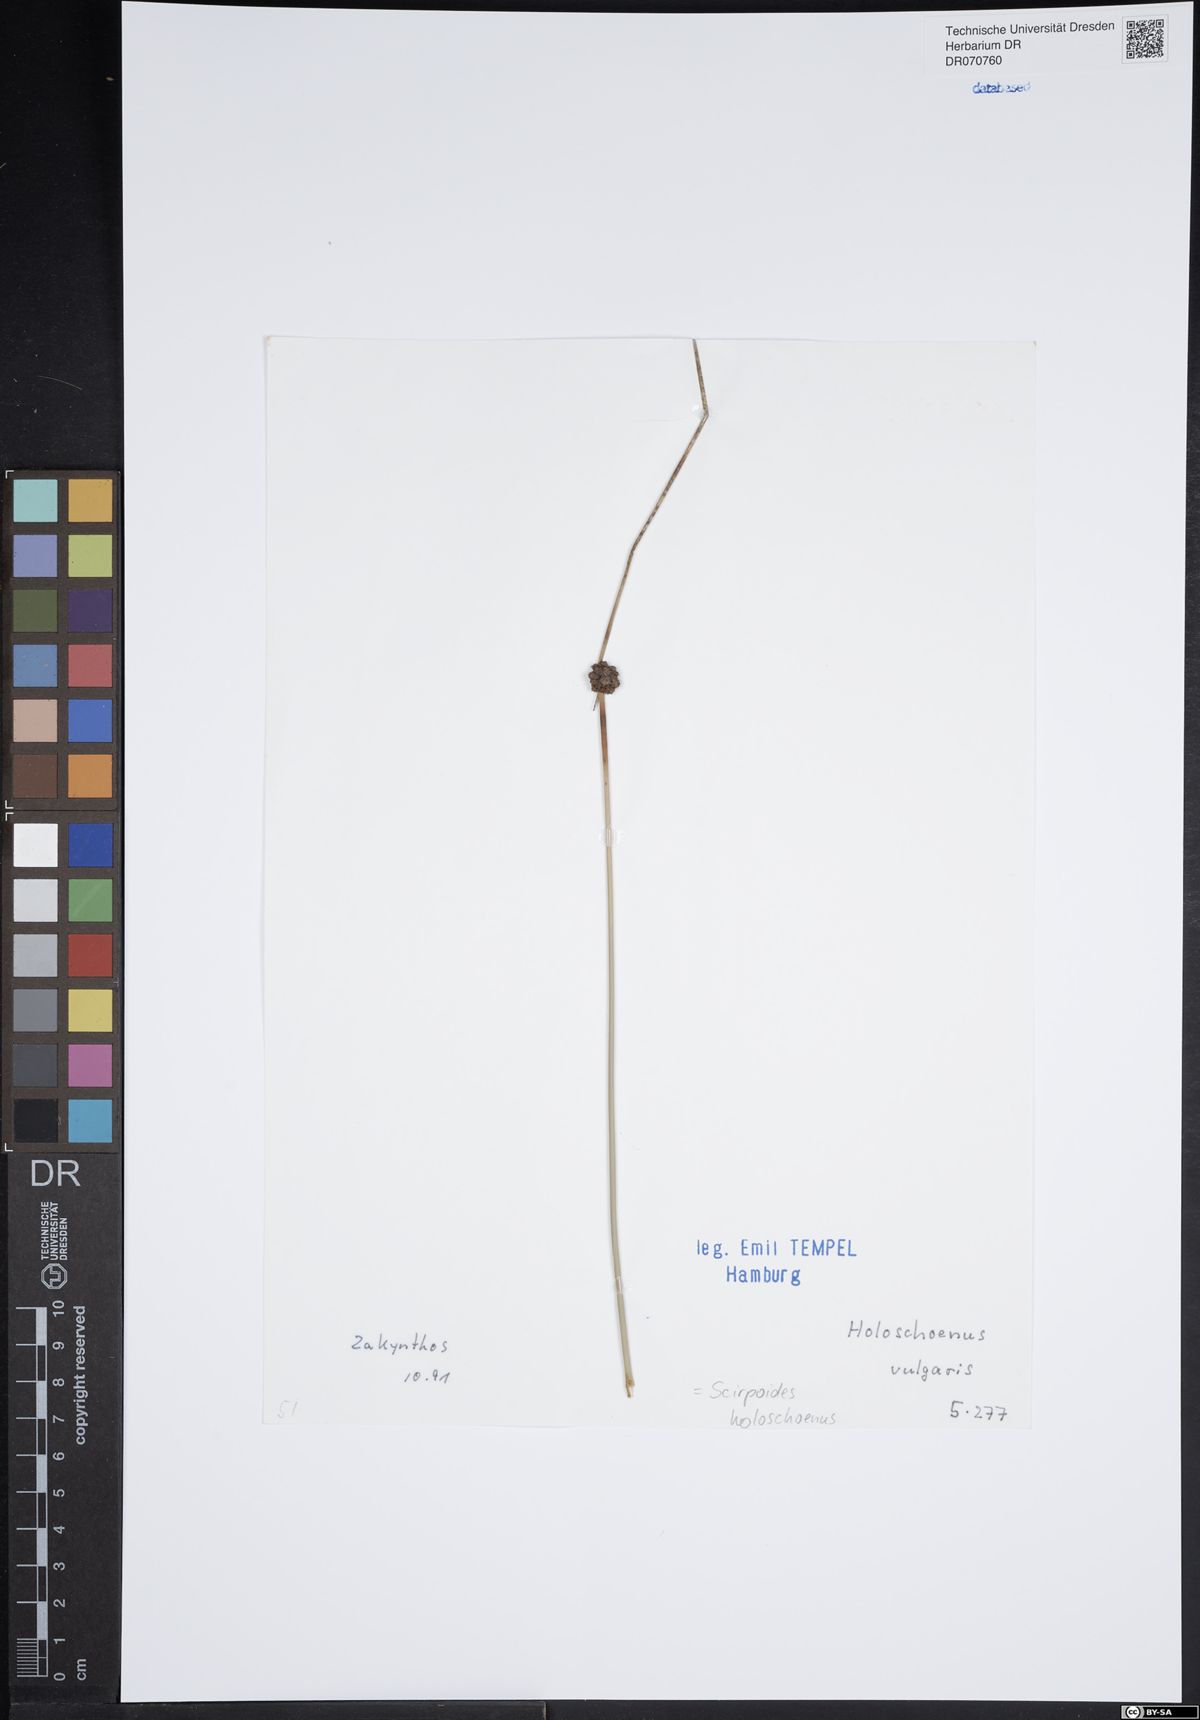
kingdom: Plantae
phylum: Tracheophyta
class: Liliopsida
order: Poales
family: Cyperaceae
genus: Scirpoides
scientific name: Scirpoides holoschoenus
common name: Round-headed club-rush
